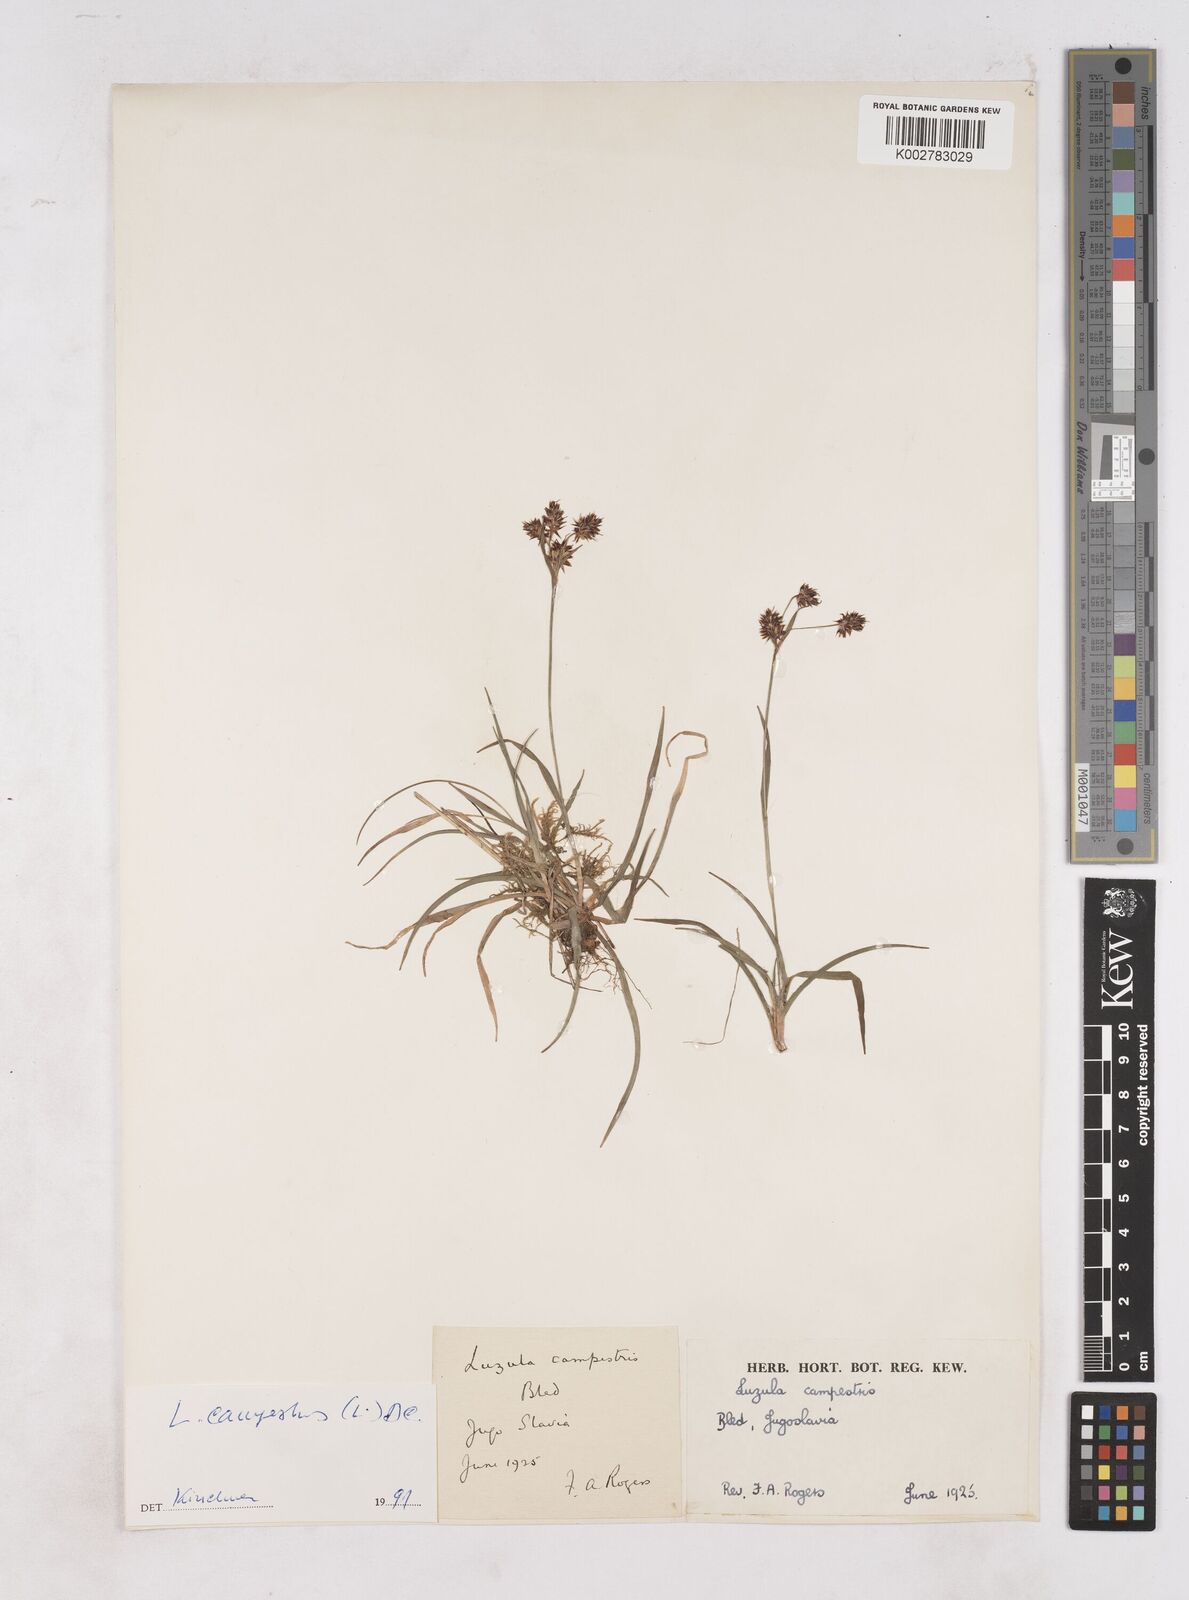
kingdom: Plantae
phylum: Tracheophyta
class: Liliopsida
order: Poales
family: Juncaceae
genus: Luzula
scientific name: Luzula campestris
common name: Field wood-rush
